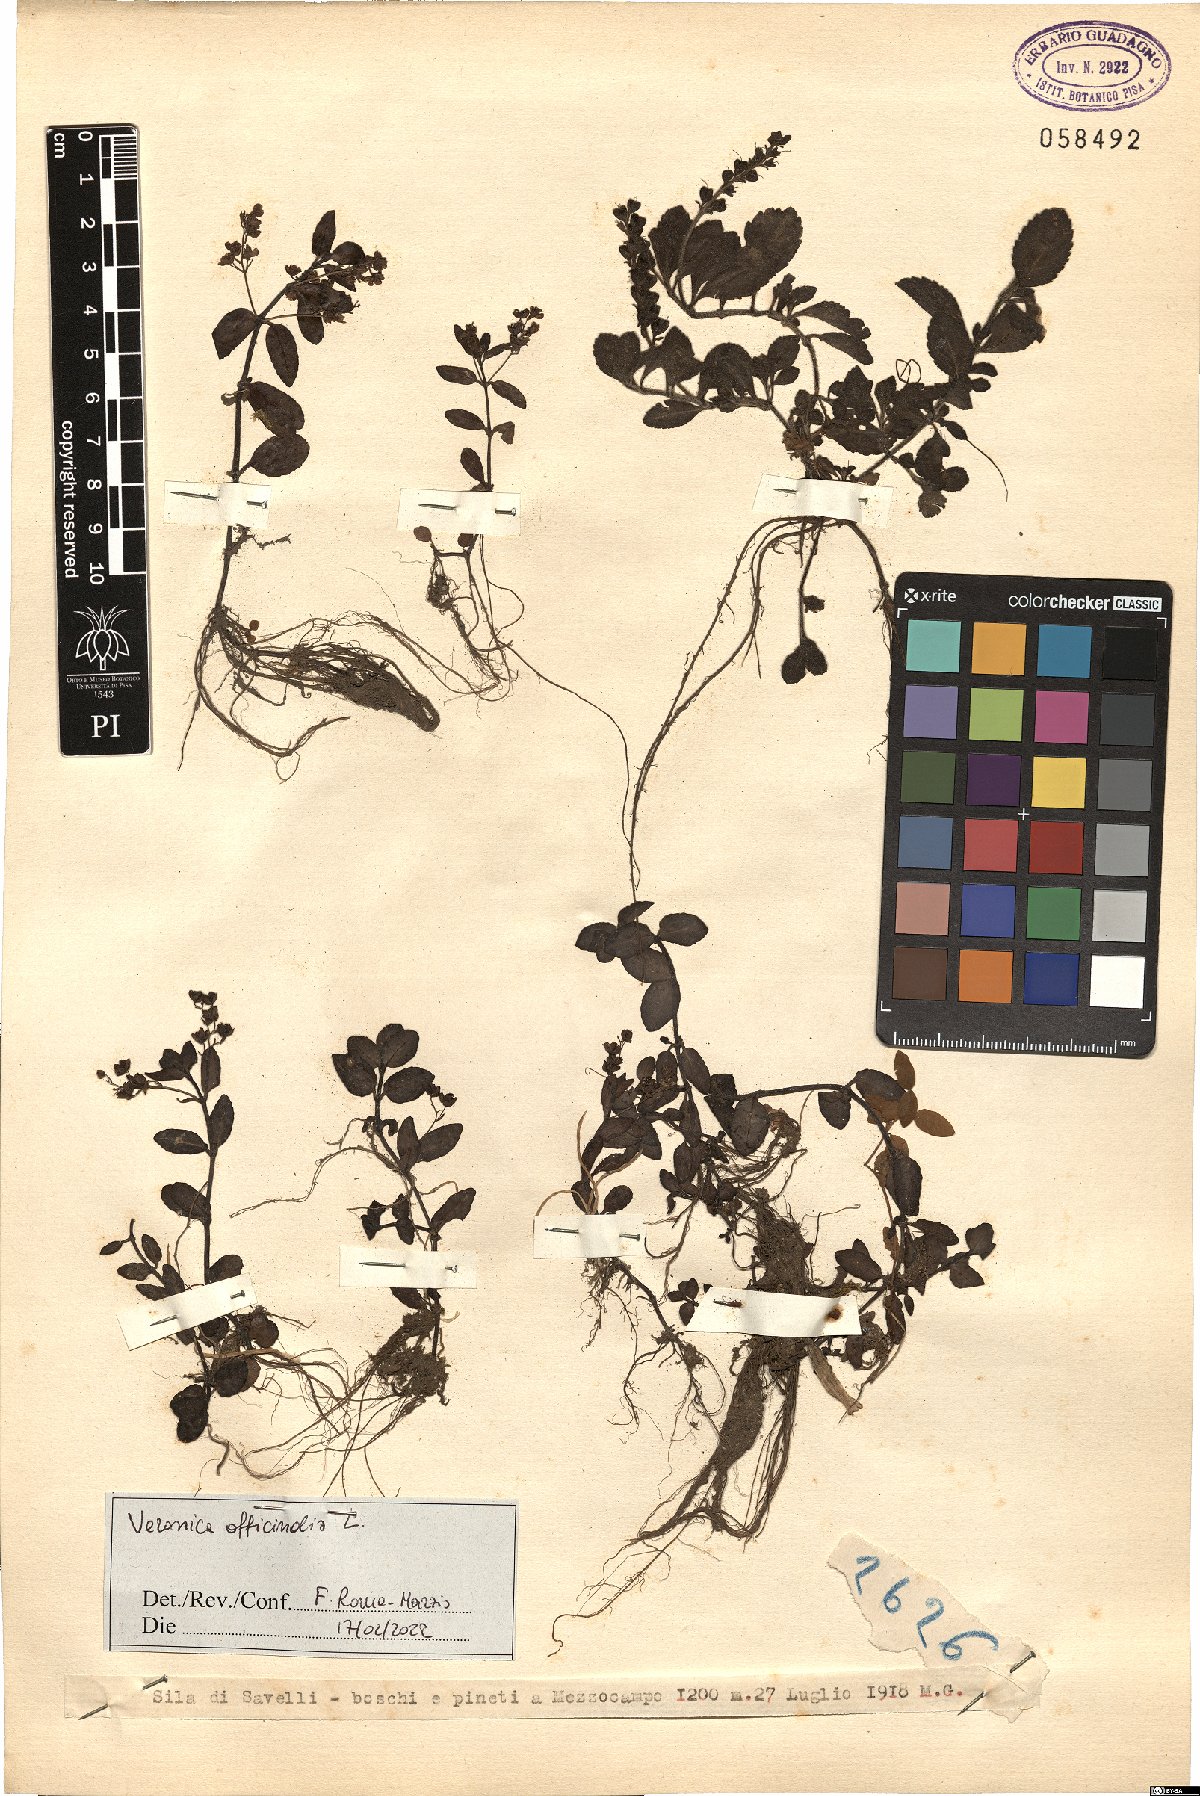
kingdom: Plantae
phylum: Tracheophyta
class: Magnoliopsida
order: Lamiales
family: Plantaginaceae
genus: Veronica
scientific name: Veronica officinalis
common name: Common speedwell
